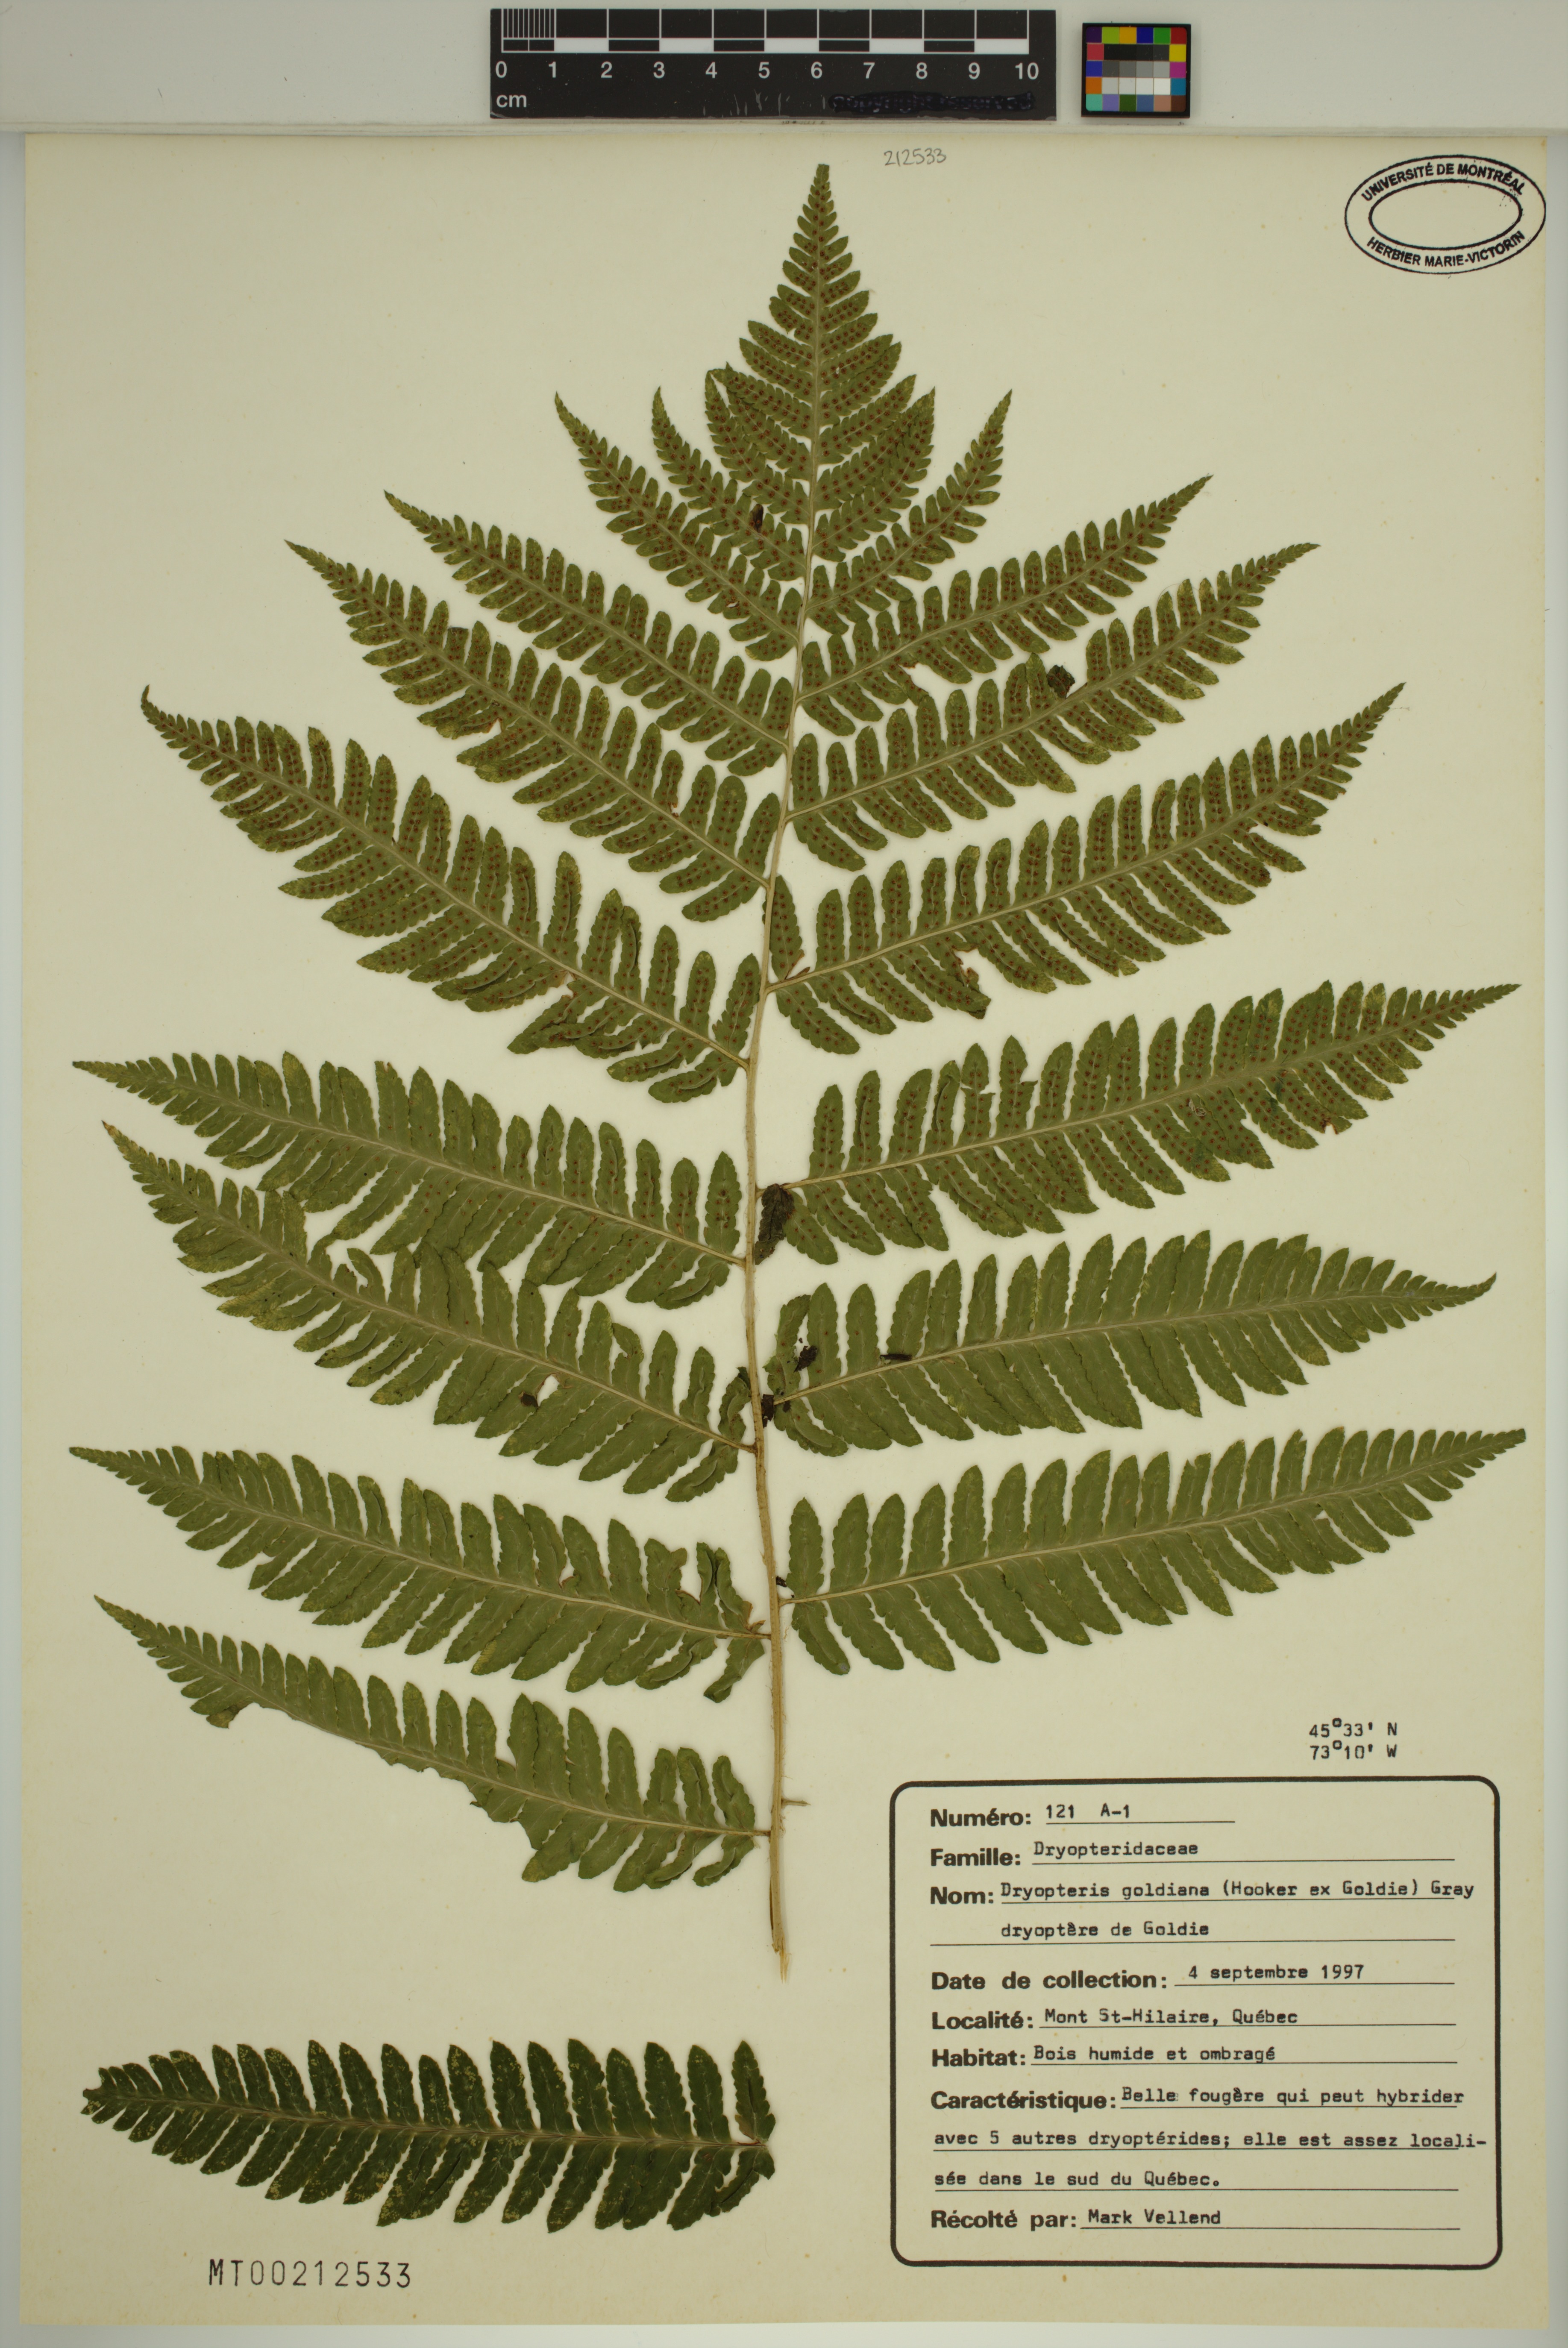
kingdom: Plantae
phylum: Tracheophyta
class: Polypodiopsida
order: Polypodiales
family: Dryopteridaceae
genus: Dryopteris
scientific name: Dryopteris goldieana
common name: Goldie's fern
